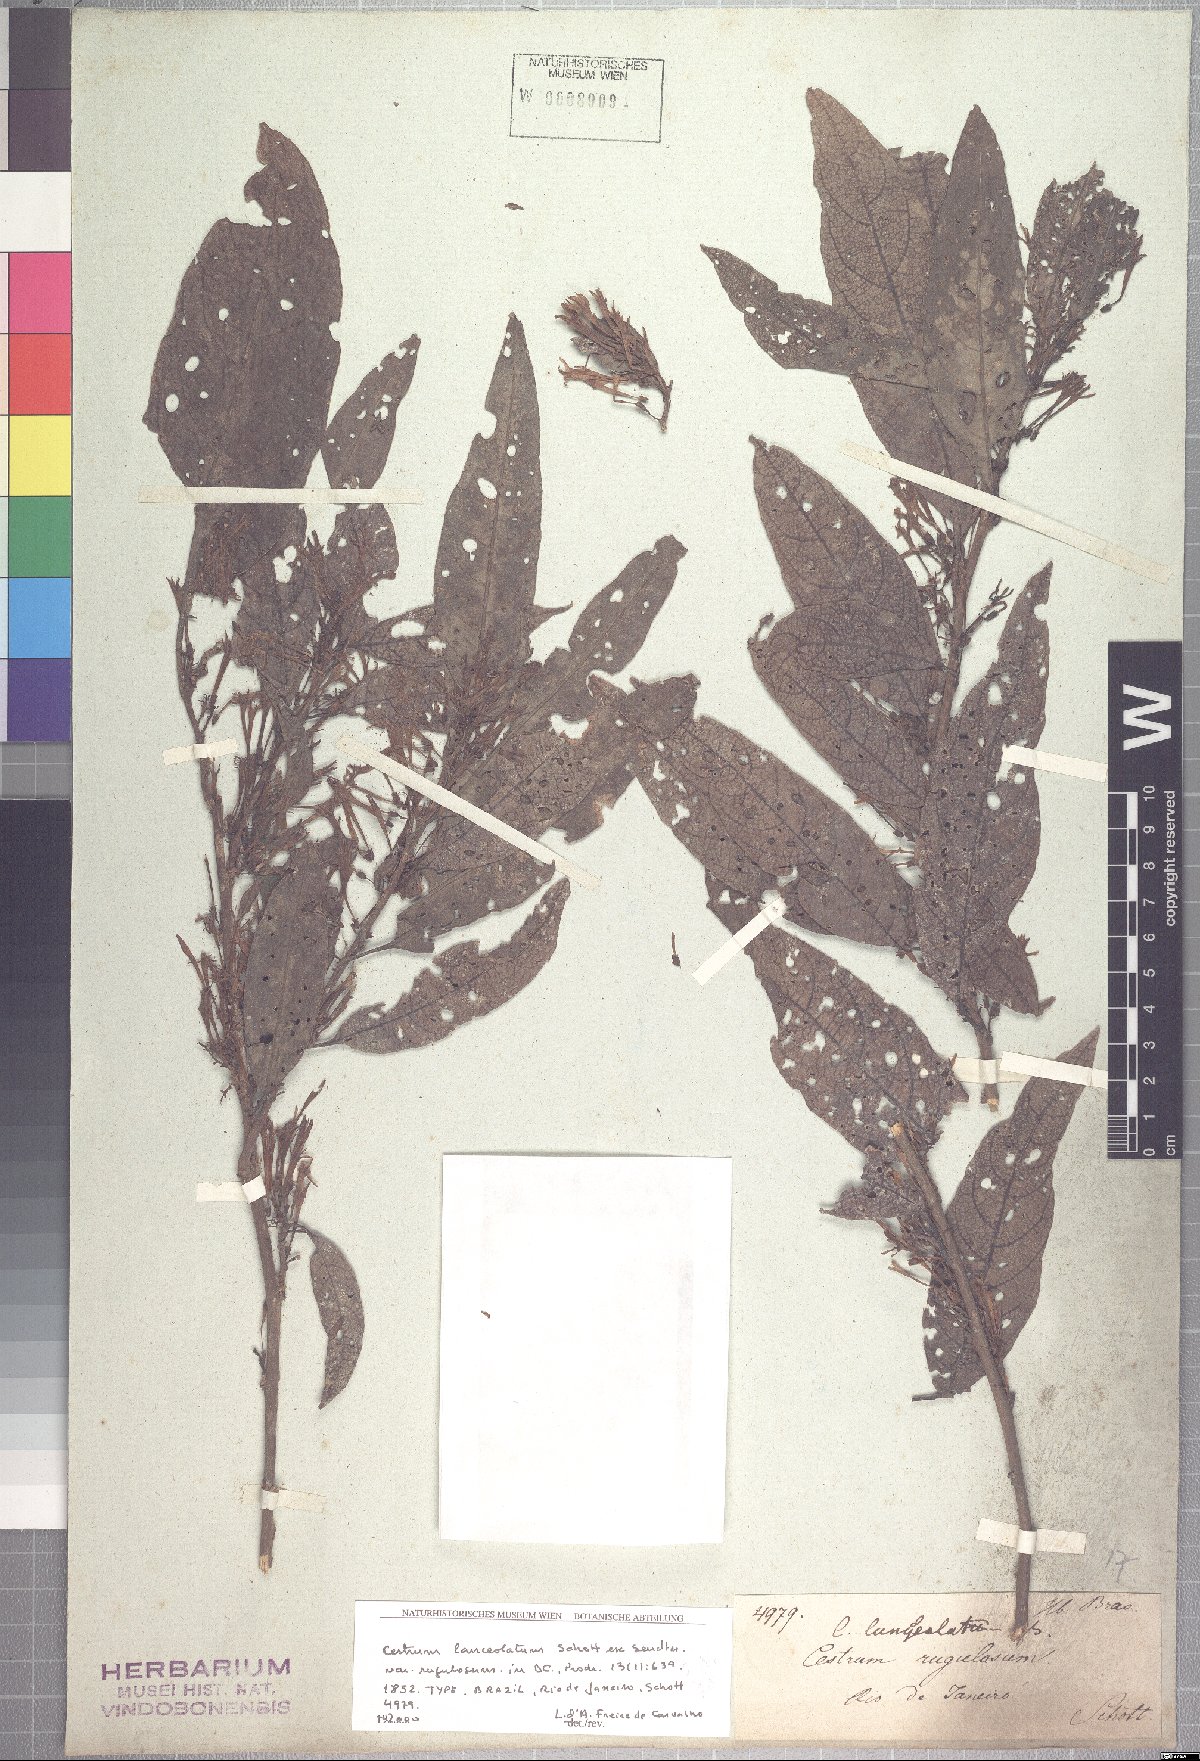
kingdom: Plantae
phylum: Tracheophyta
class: Magnoliopsida
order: Solanales
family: Solanaceae
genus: Cestrum
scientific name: Cestrum bracteatum
